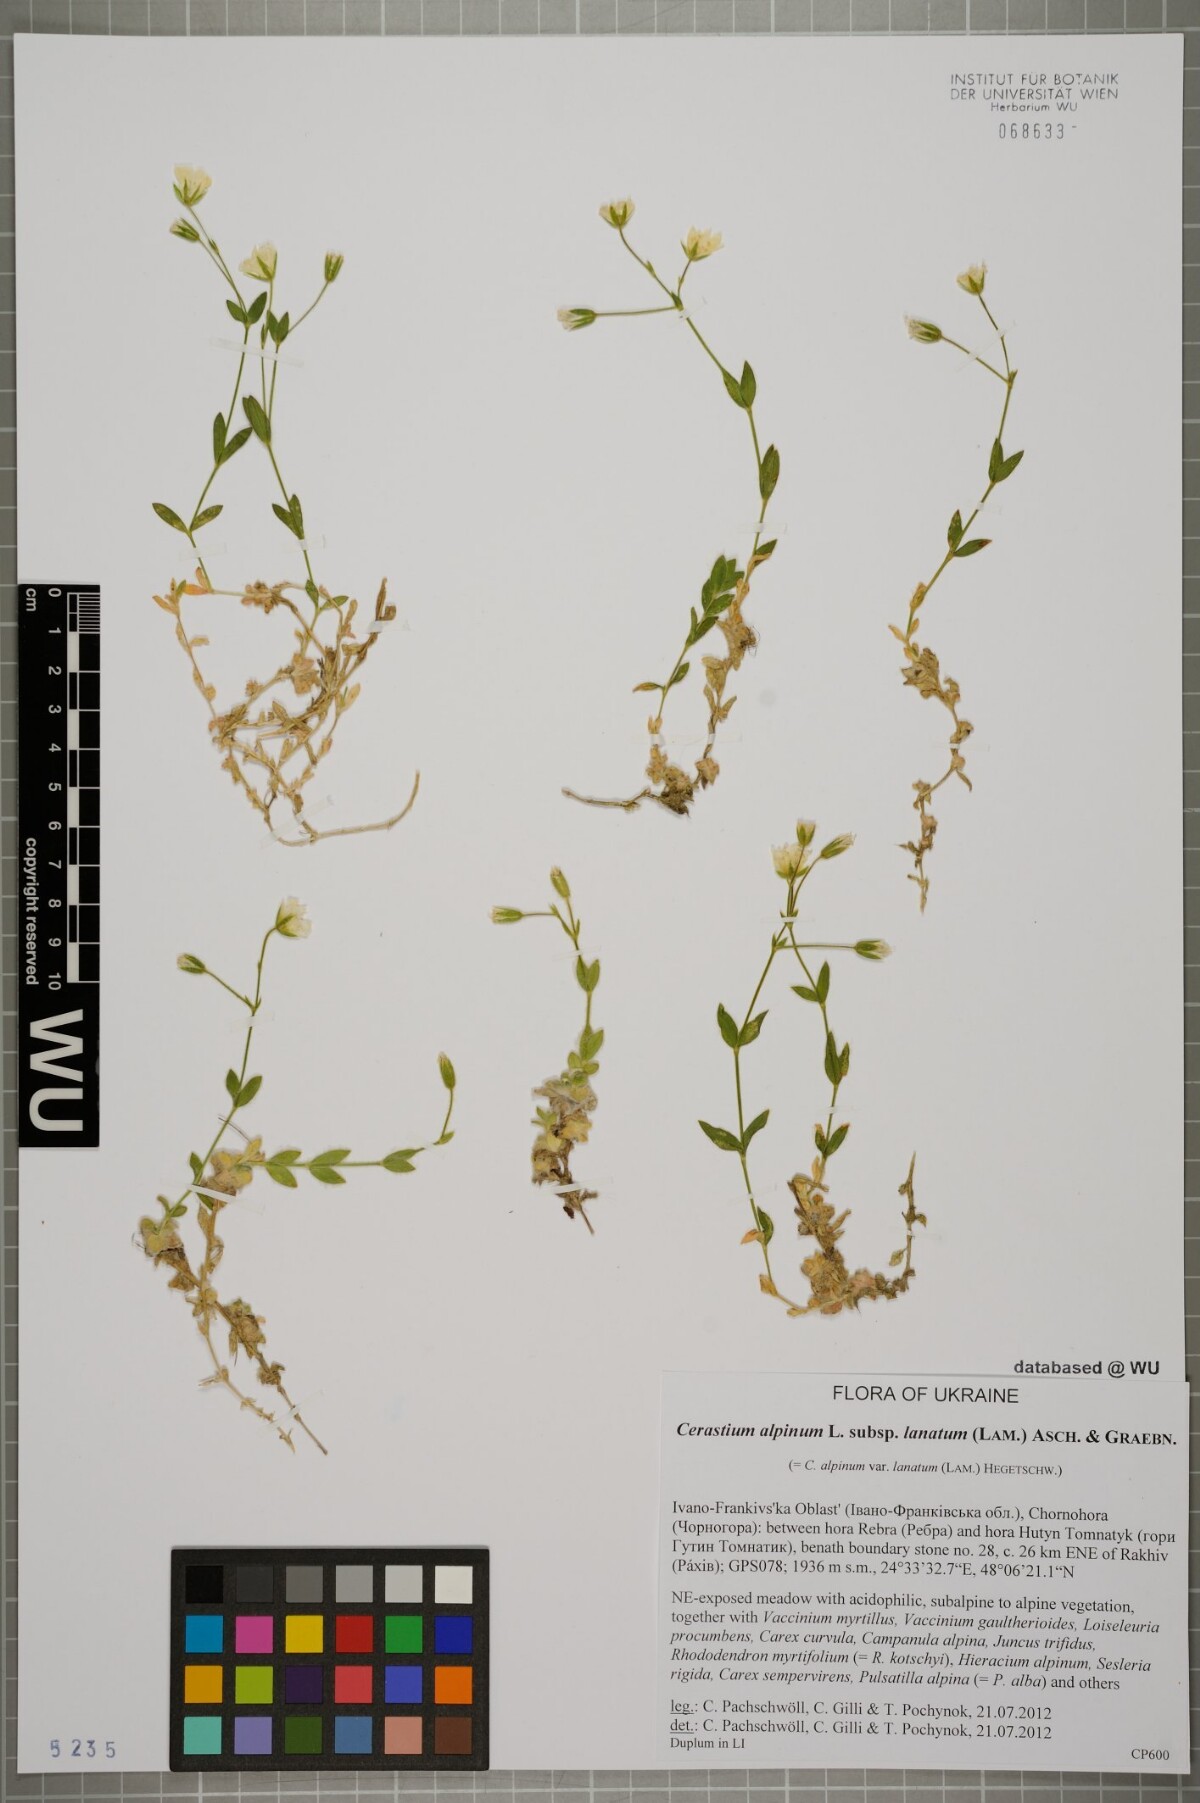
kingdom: Plantae
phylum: Tracheophyta
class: Magnoliopsida
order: Caryophyllales
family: Caryophyllaceae
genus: Cerastium
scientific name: Cerastium alpinum
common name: Alpine mouse-ear
